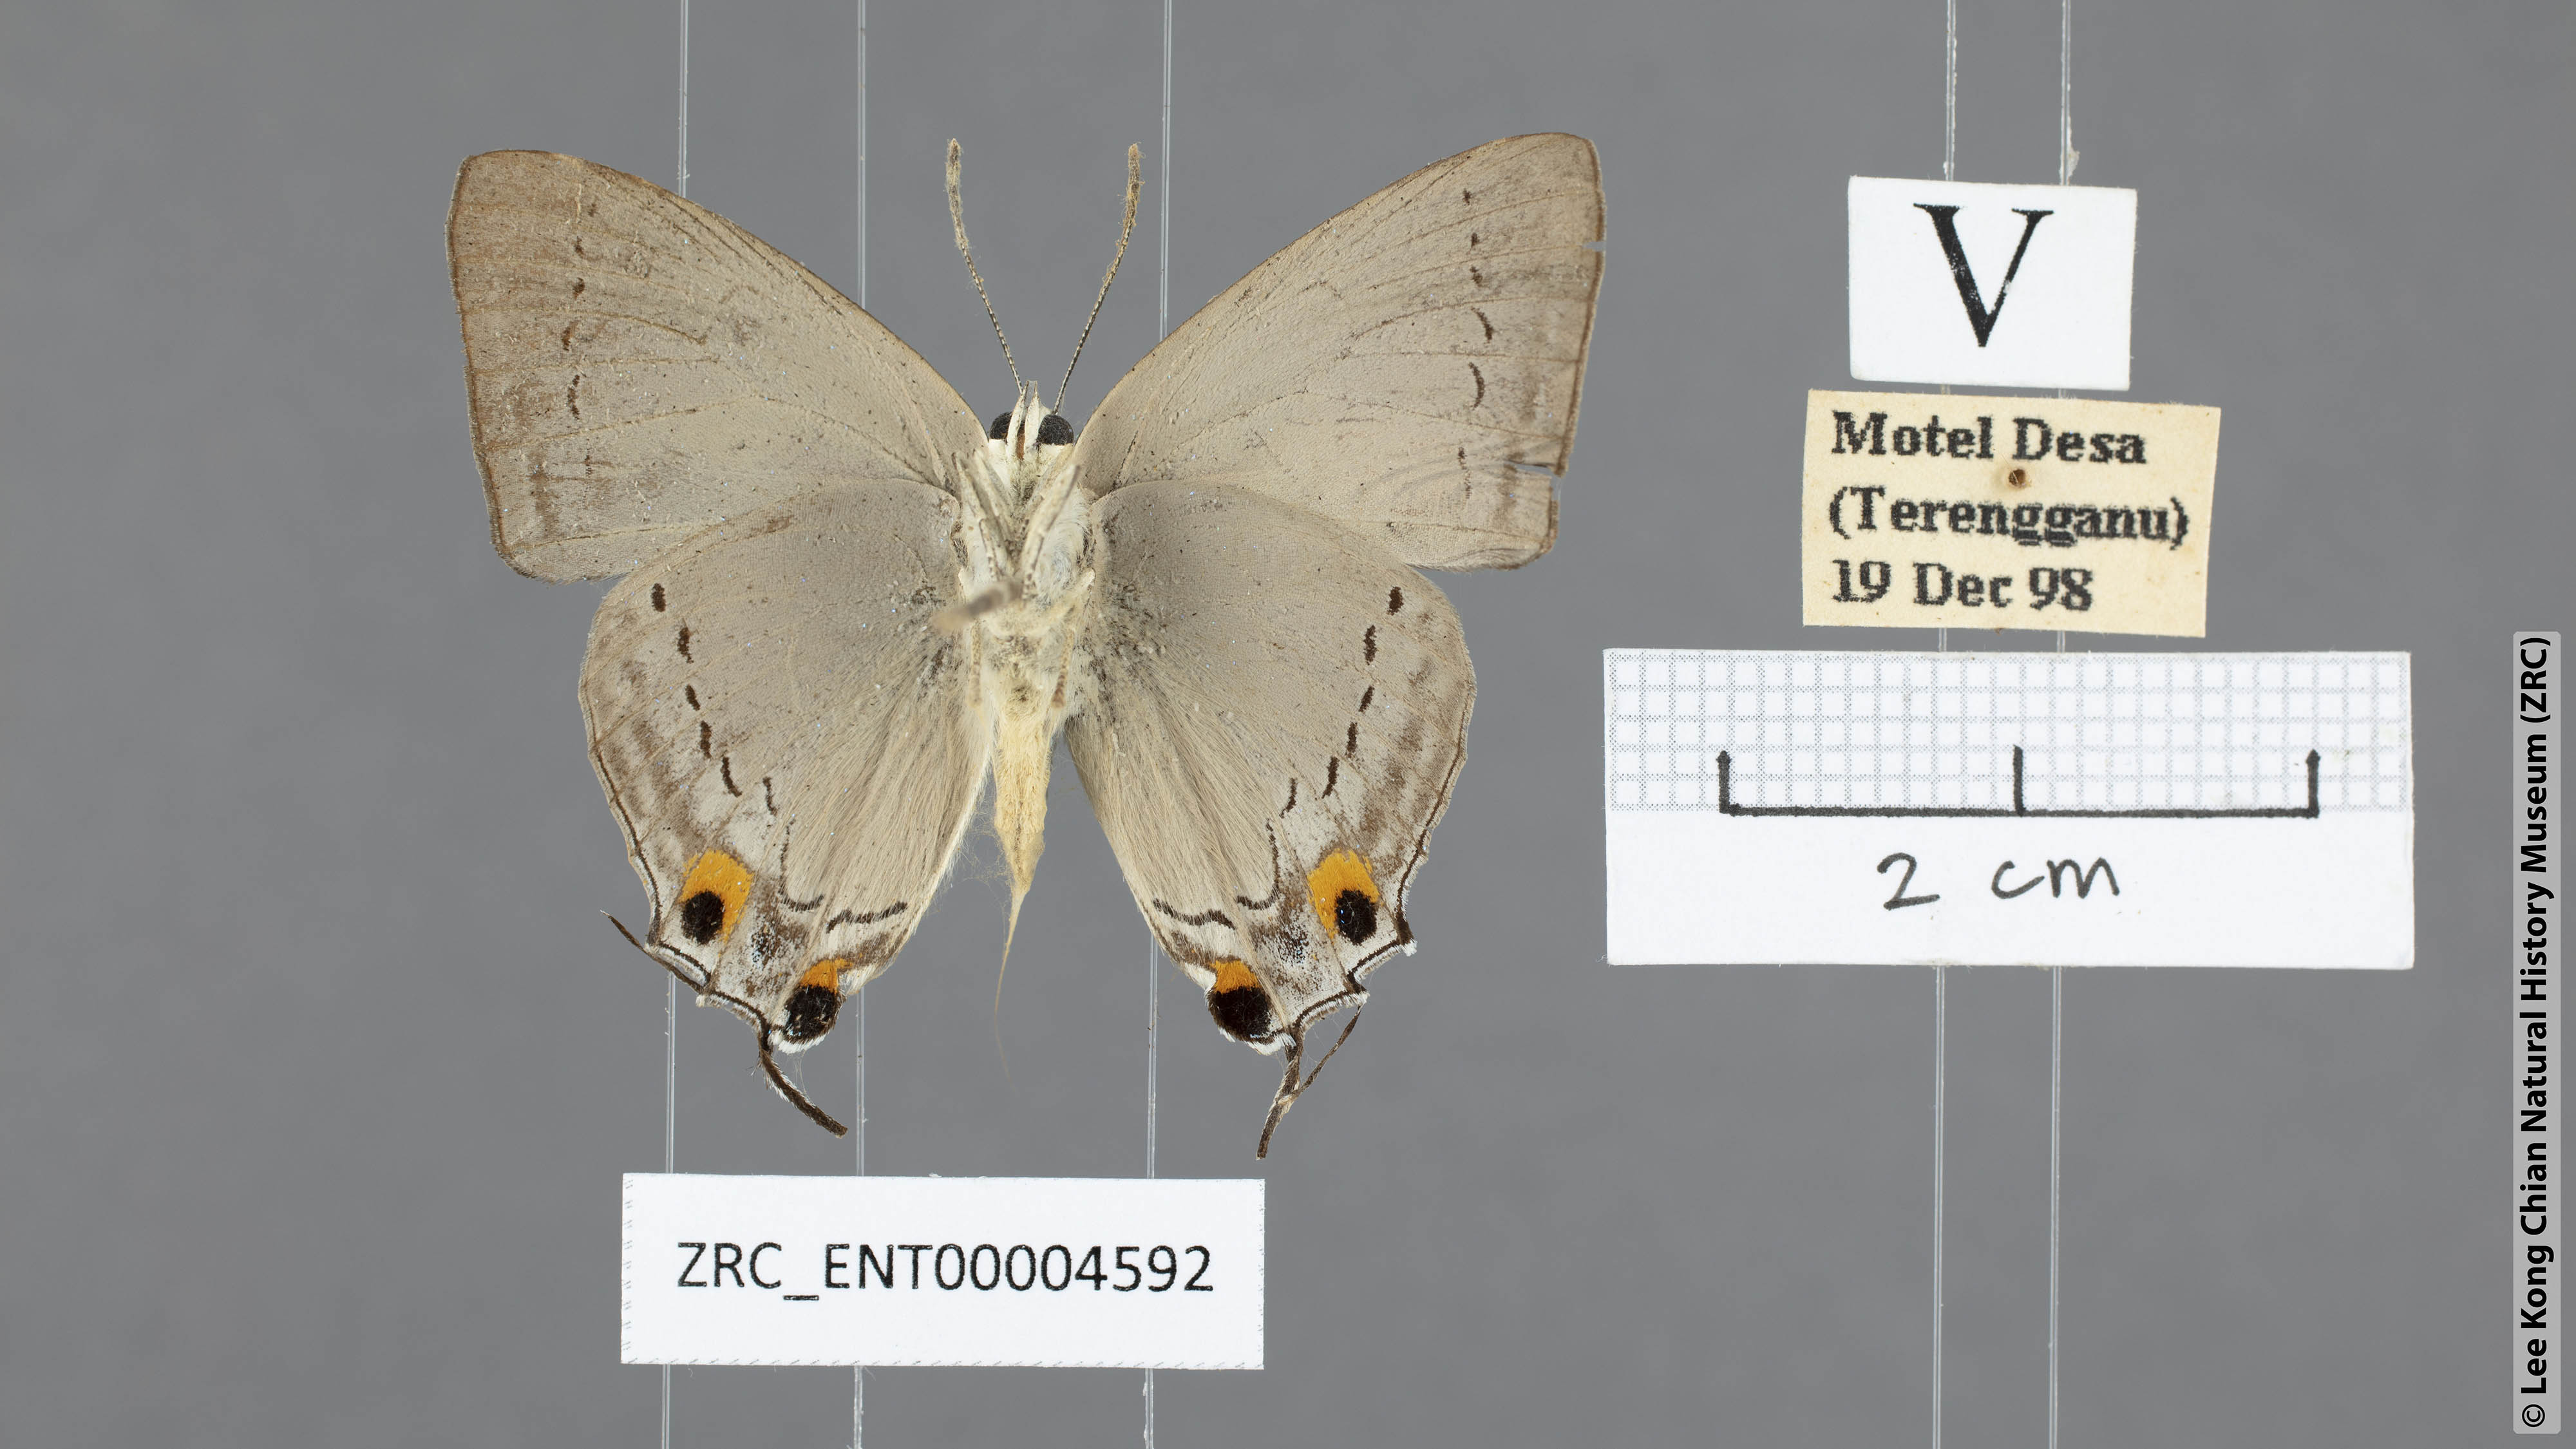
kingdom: Animalia
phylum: Arthropoda
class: Insecta
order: Lepidoptera
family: Lycaenidae
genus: Tajuria
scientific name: Tajuria cippus
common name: Peacock royal
